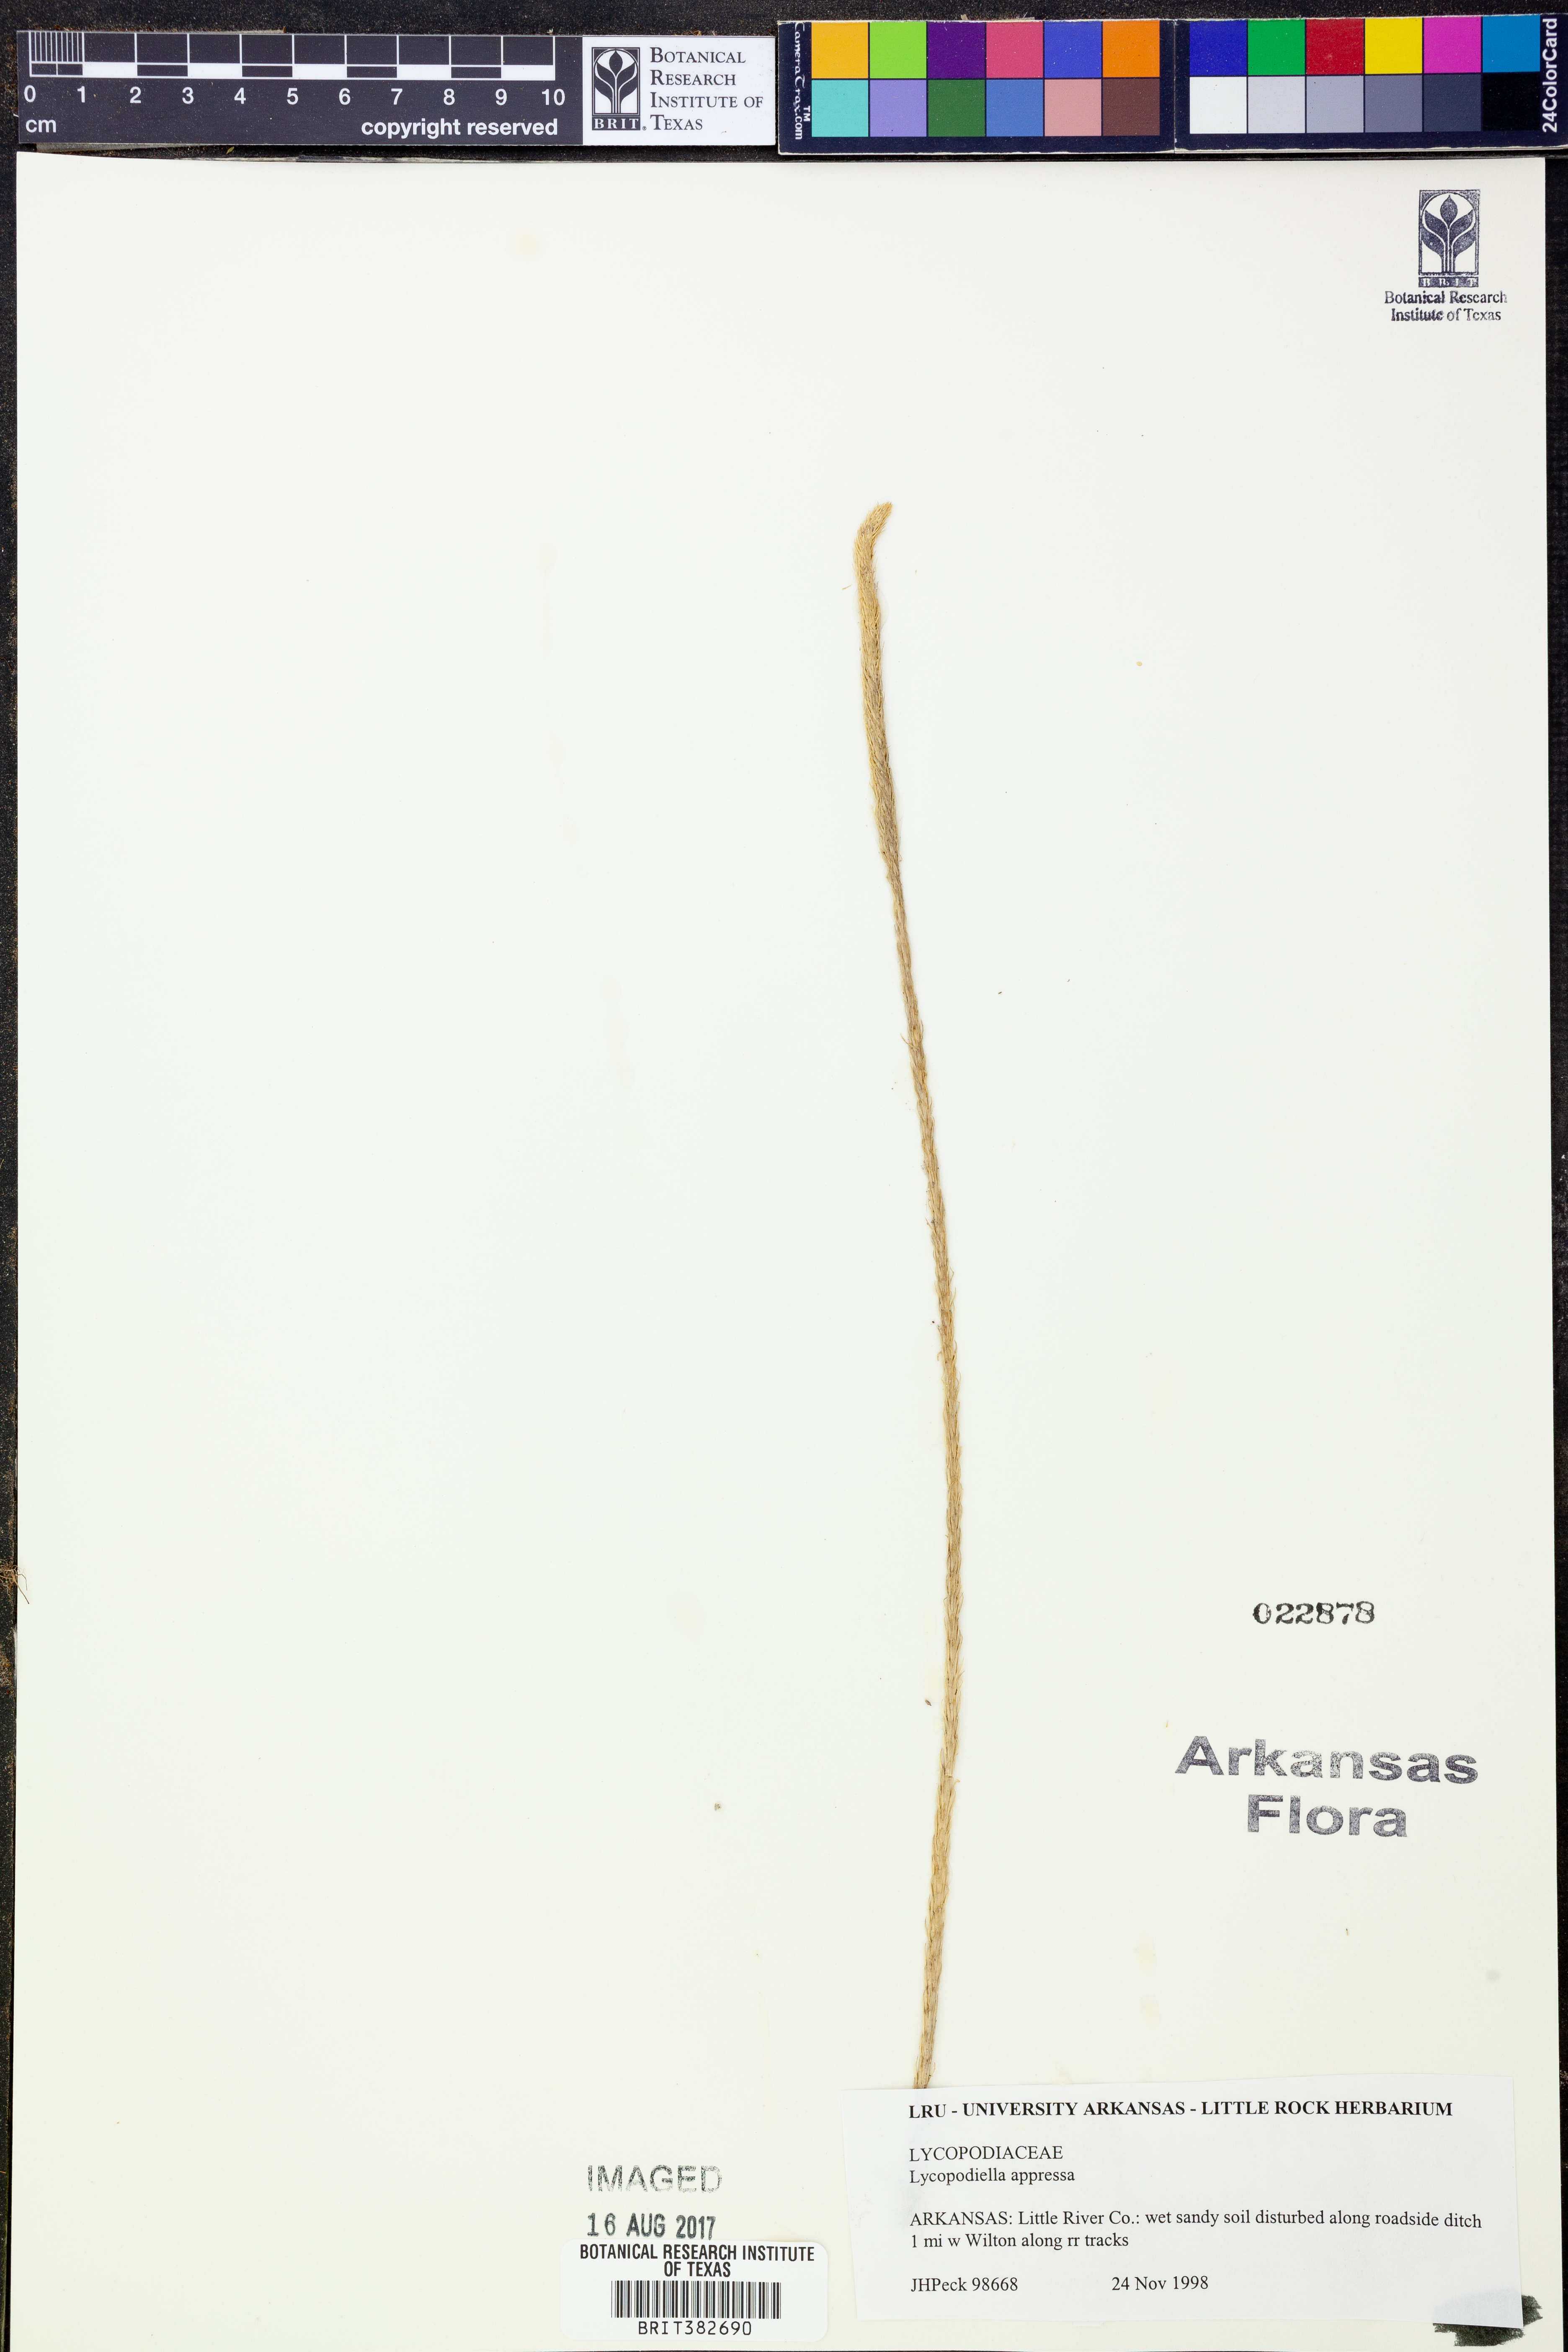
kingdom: Plantae
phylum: Tracheophyta
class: Lycopodiopsida
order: Lycopodiales
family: Lycopodiaceae
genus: Lycopodiella
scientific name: Lycopodiella appressa
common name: Appressed bog clubmoss
